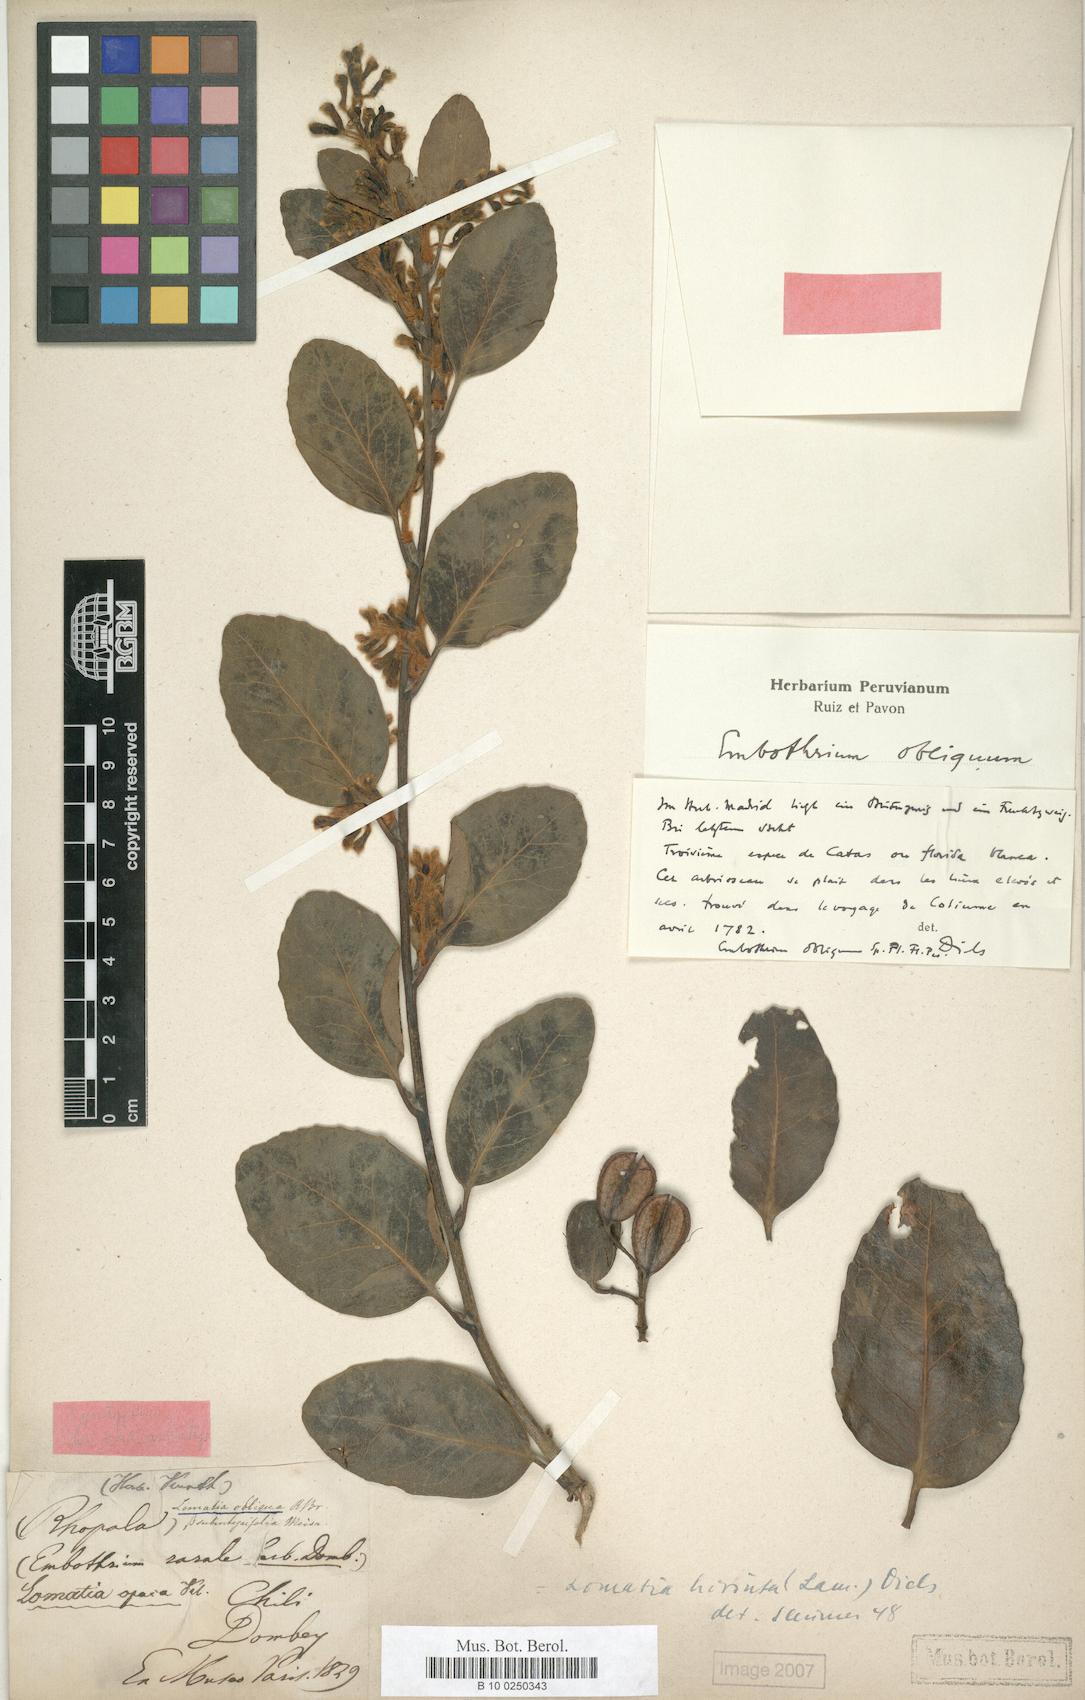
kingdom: Plantae
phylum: Tracheophyta
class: Magnoliopsida
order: Proteales
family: Proteaceae
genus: Lomatia
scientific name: Lomatia hirsuta
